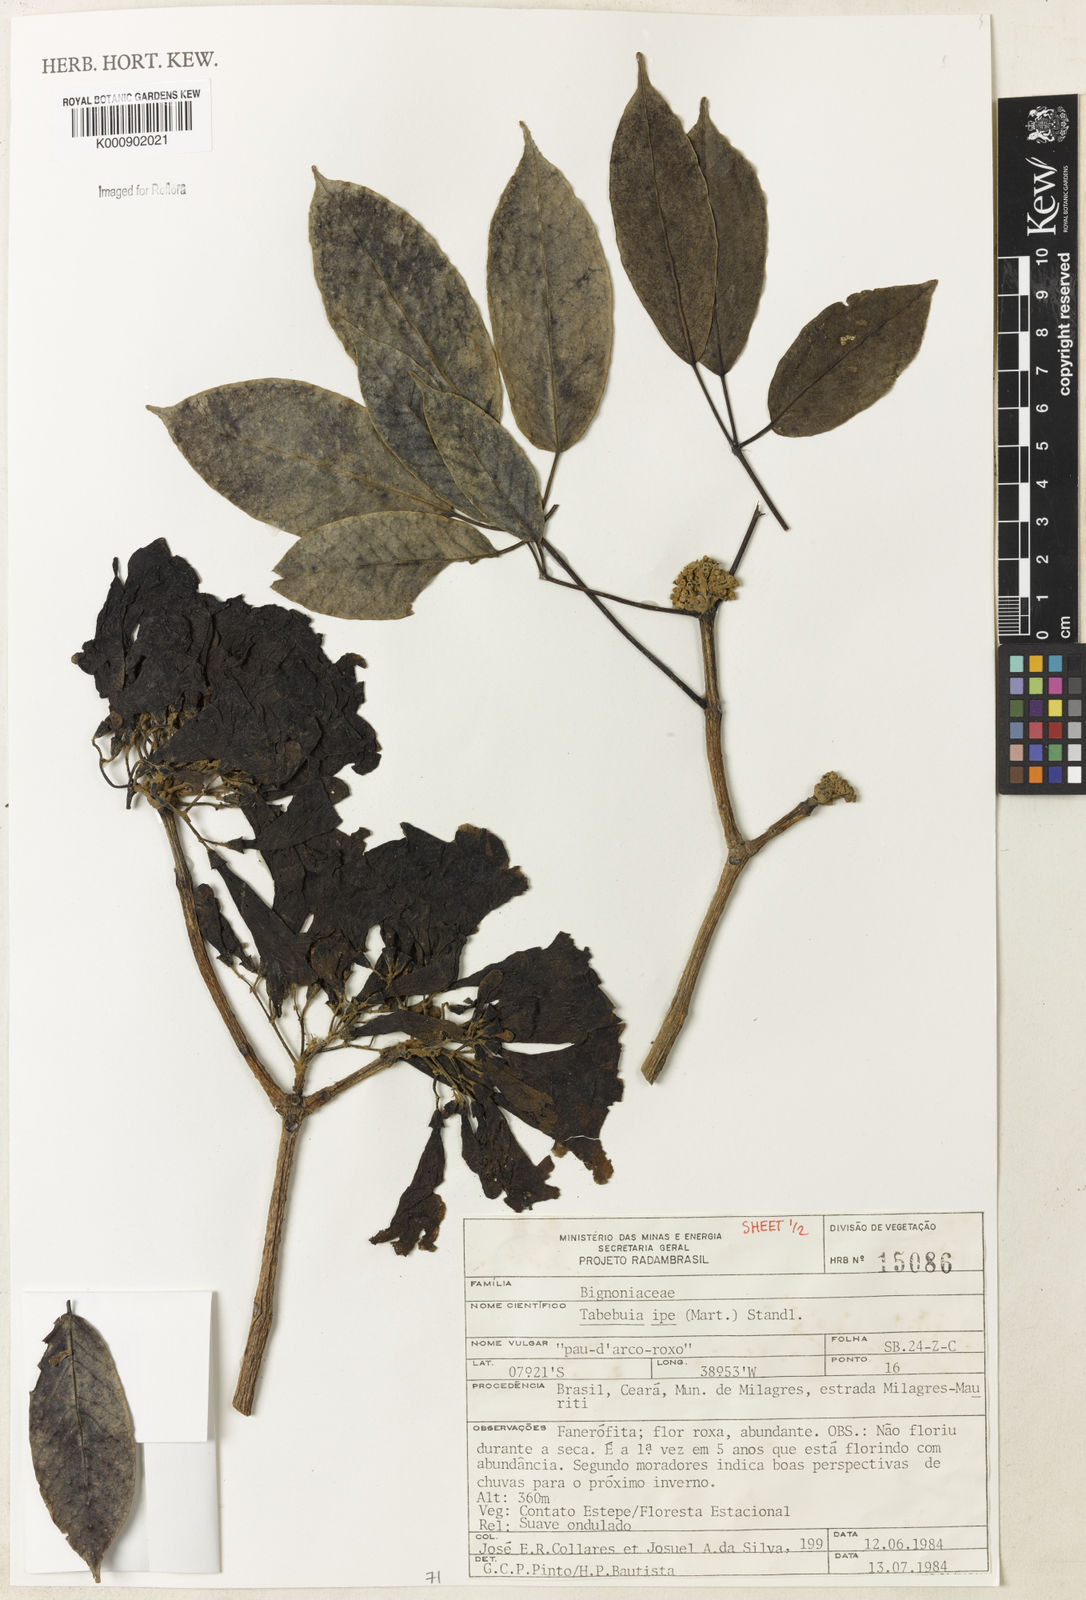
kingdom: Plantae
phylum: Tracheophyta
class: Magnoliopsida
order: Lamiales
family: Bignoniaceae
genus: Handroanthus
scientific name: Handroanthus heptaphyllus
